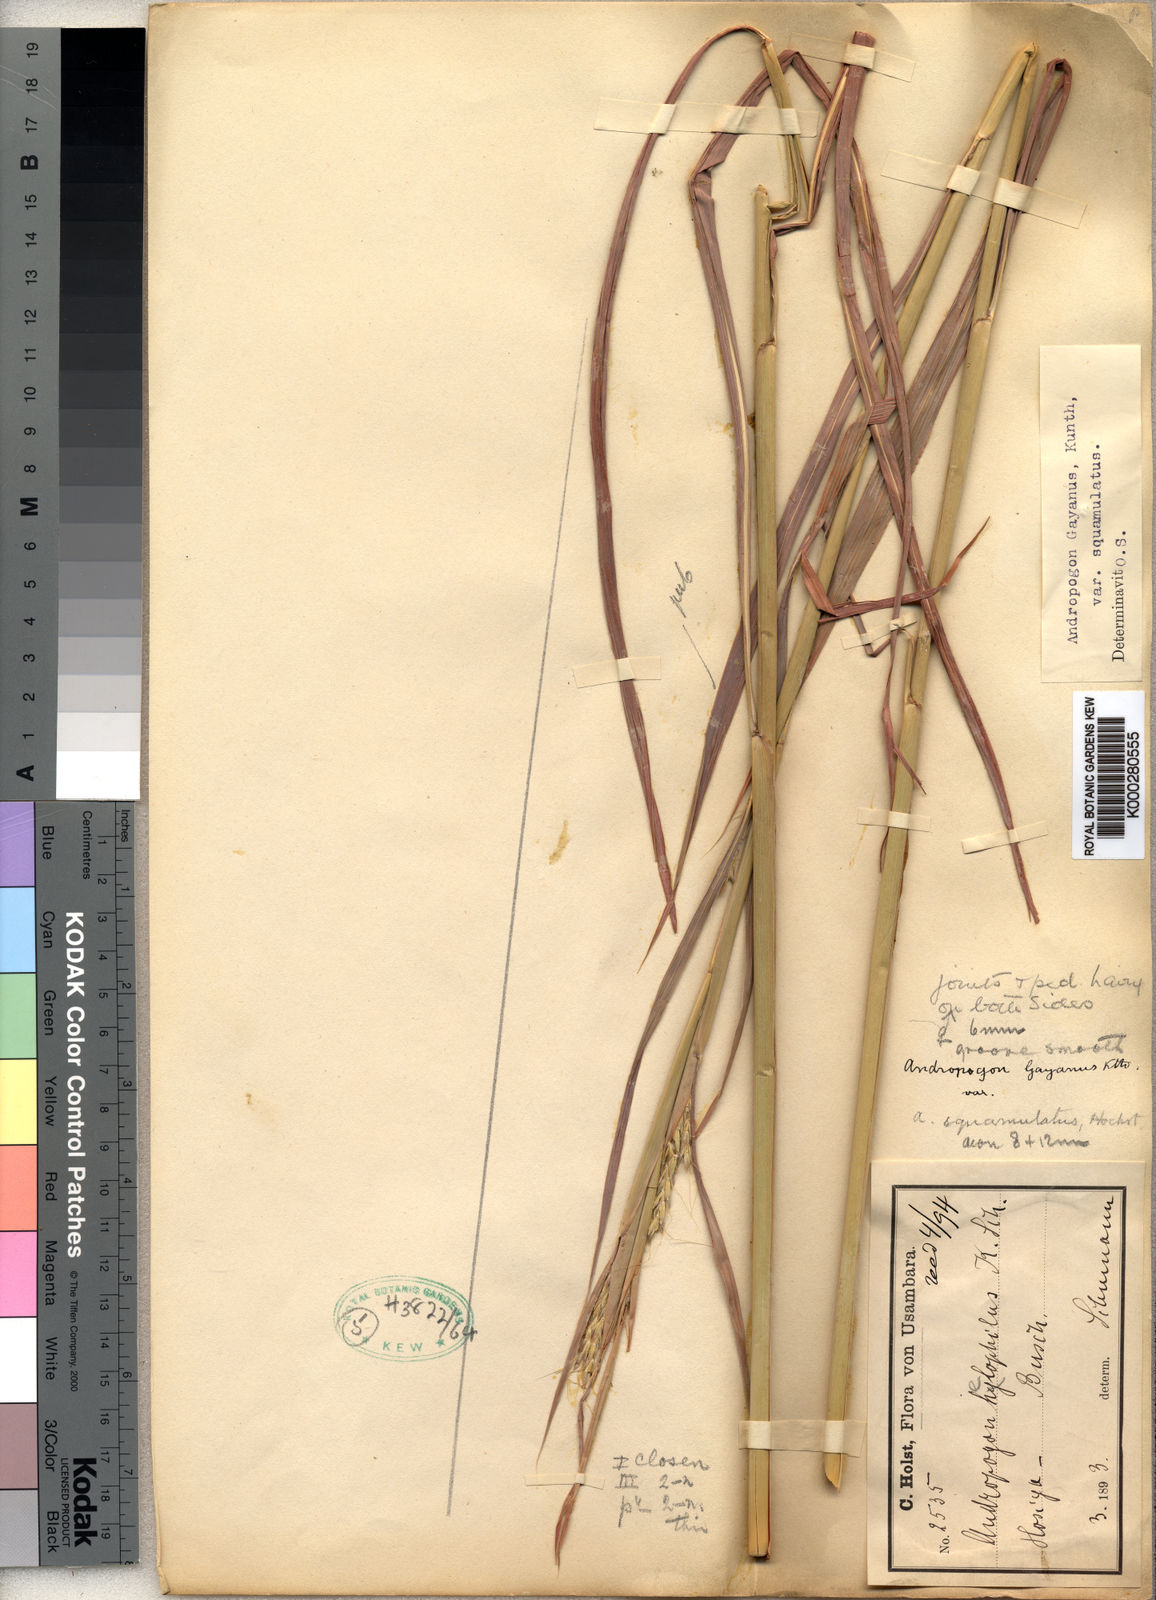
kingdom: Plantae
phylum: Tracheophyta
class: Liliopsida
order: Poales
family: Poaceae
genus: Andropogon
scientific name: Andropogon gayanus
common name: Tambuki grass
